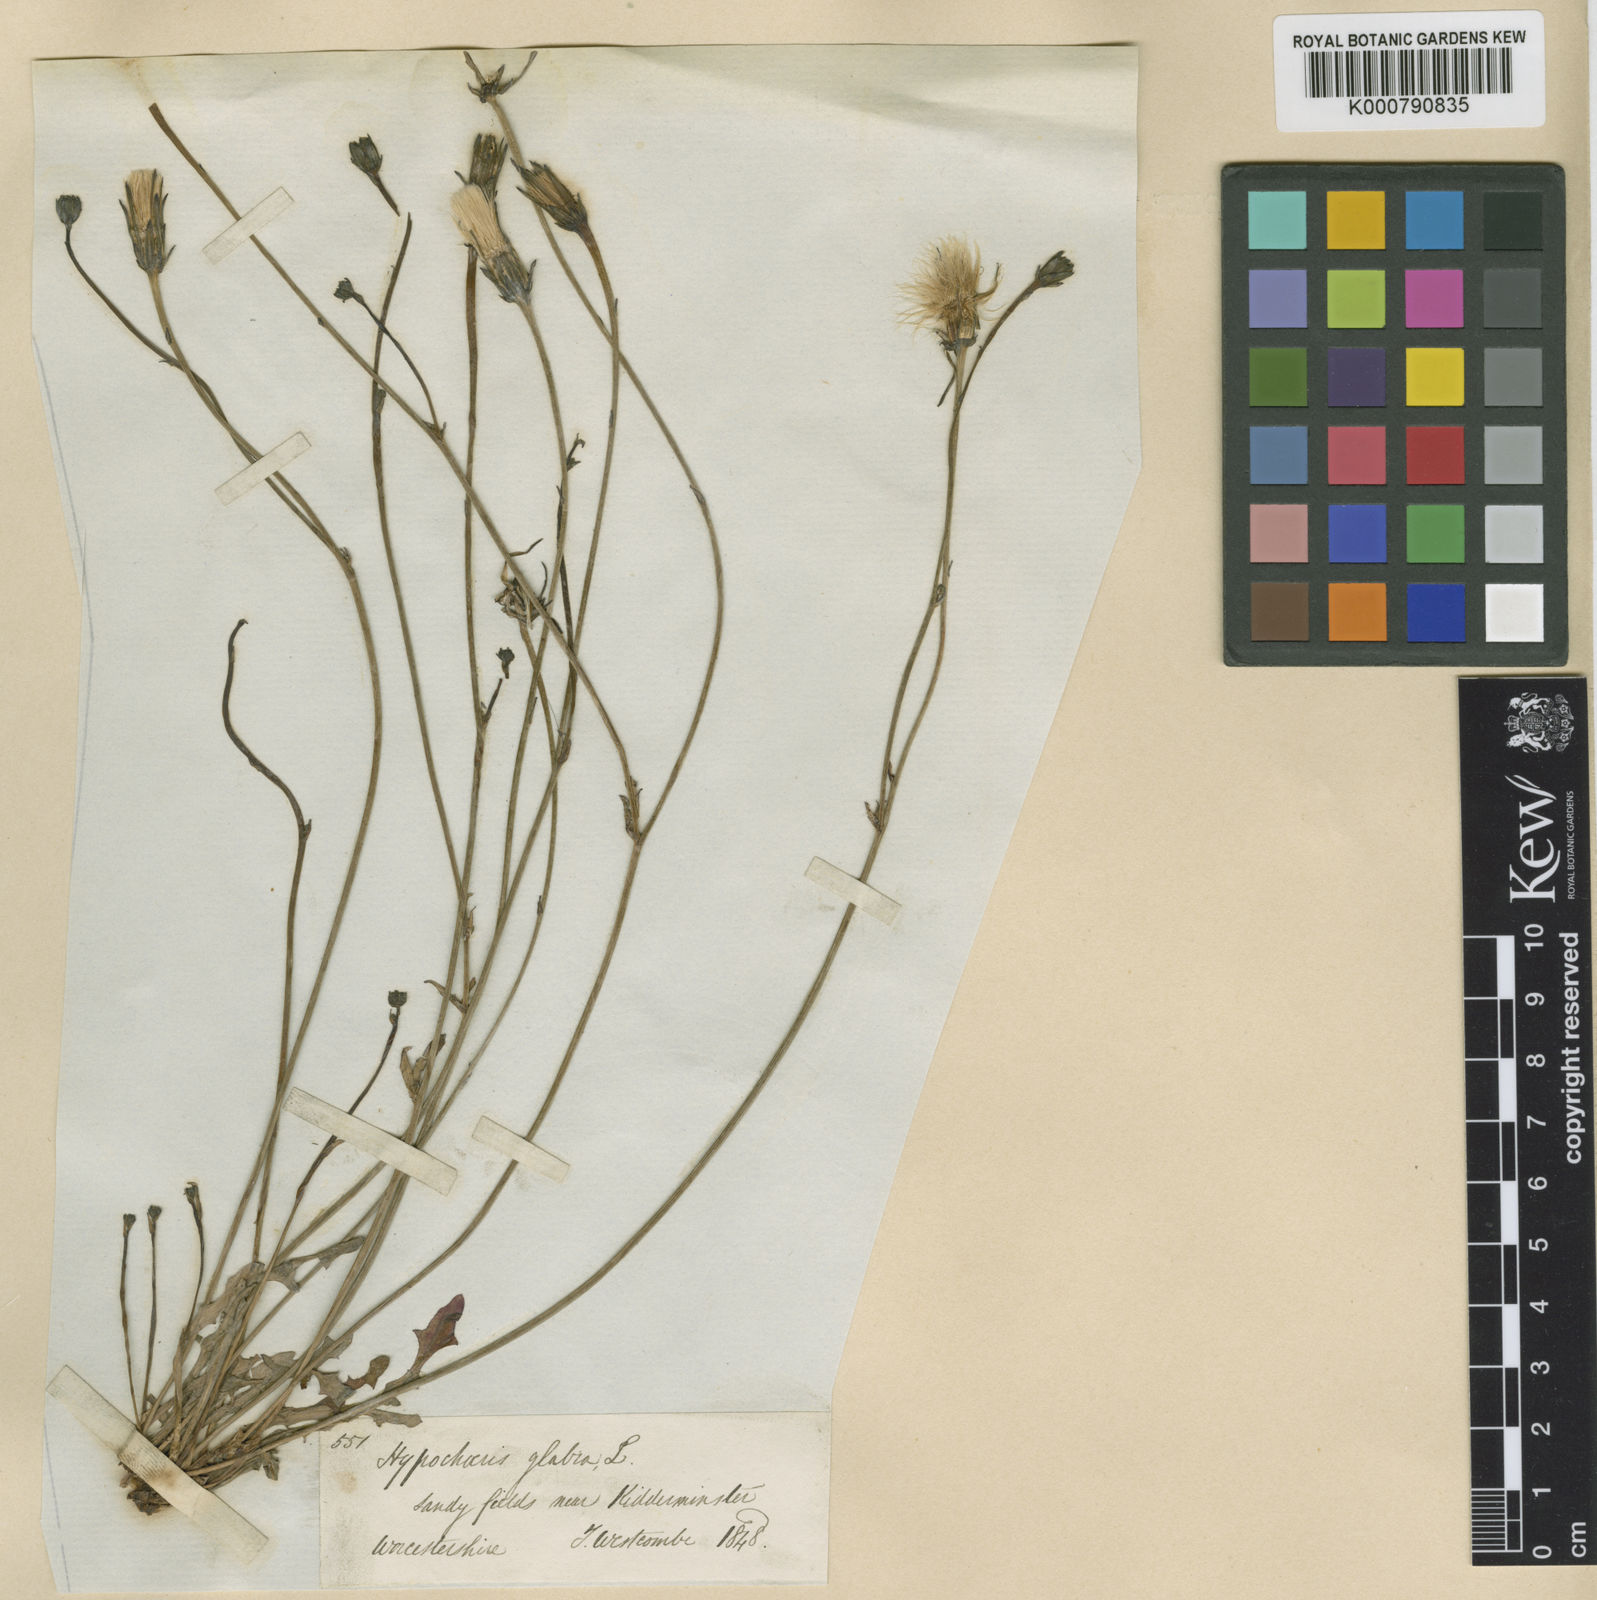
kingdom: Plantae
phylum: Tracheophyta
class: Magnoliopsida
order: Asterales
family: Asteraceae
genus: Hypochaeris
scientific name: Hypochaeris glabra
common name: Smooth catsear
